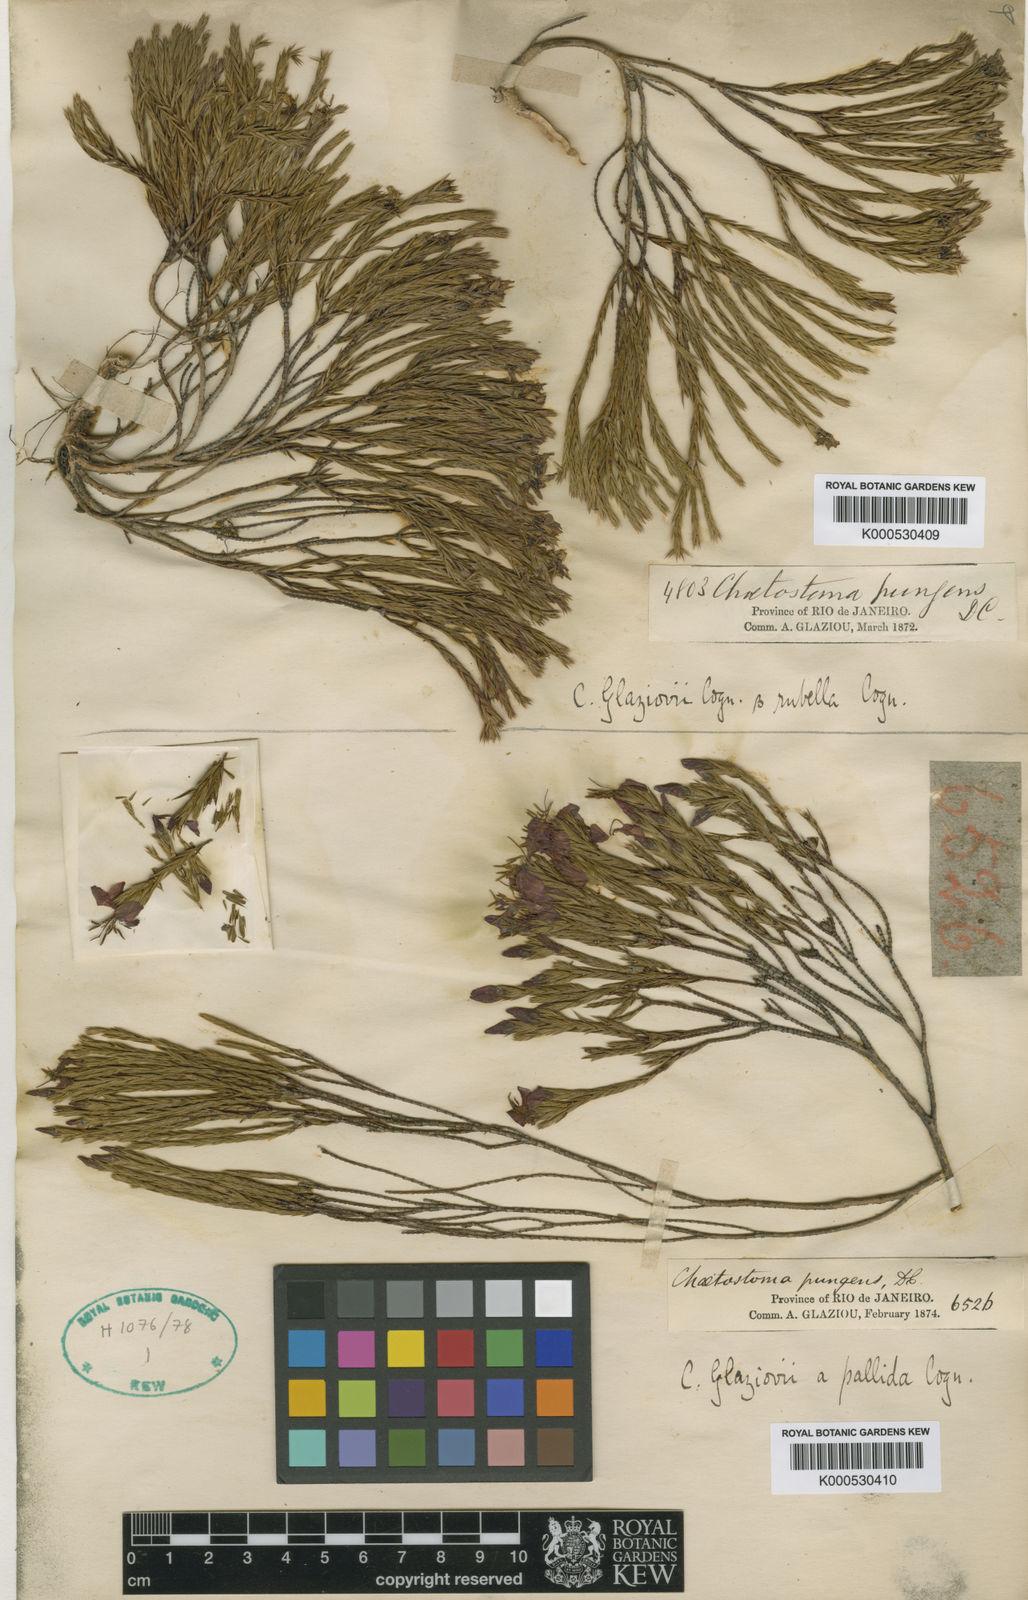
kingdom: Plantae
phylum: Tracheophyta
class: Magnoliopsida
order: Myrtales
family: Melastomataceae
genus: Microlicia
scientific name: Microlicia glaziovii
